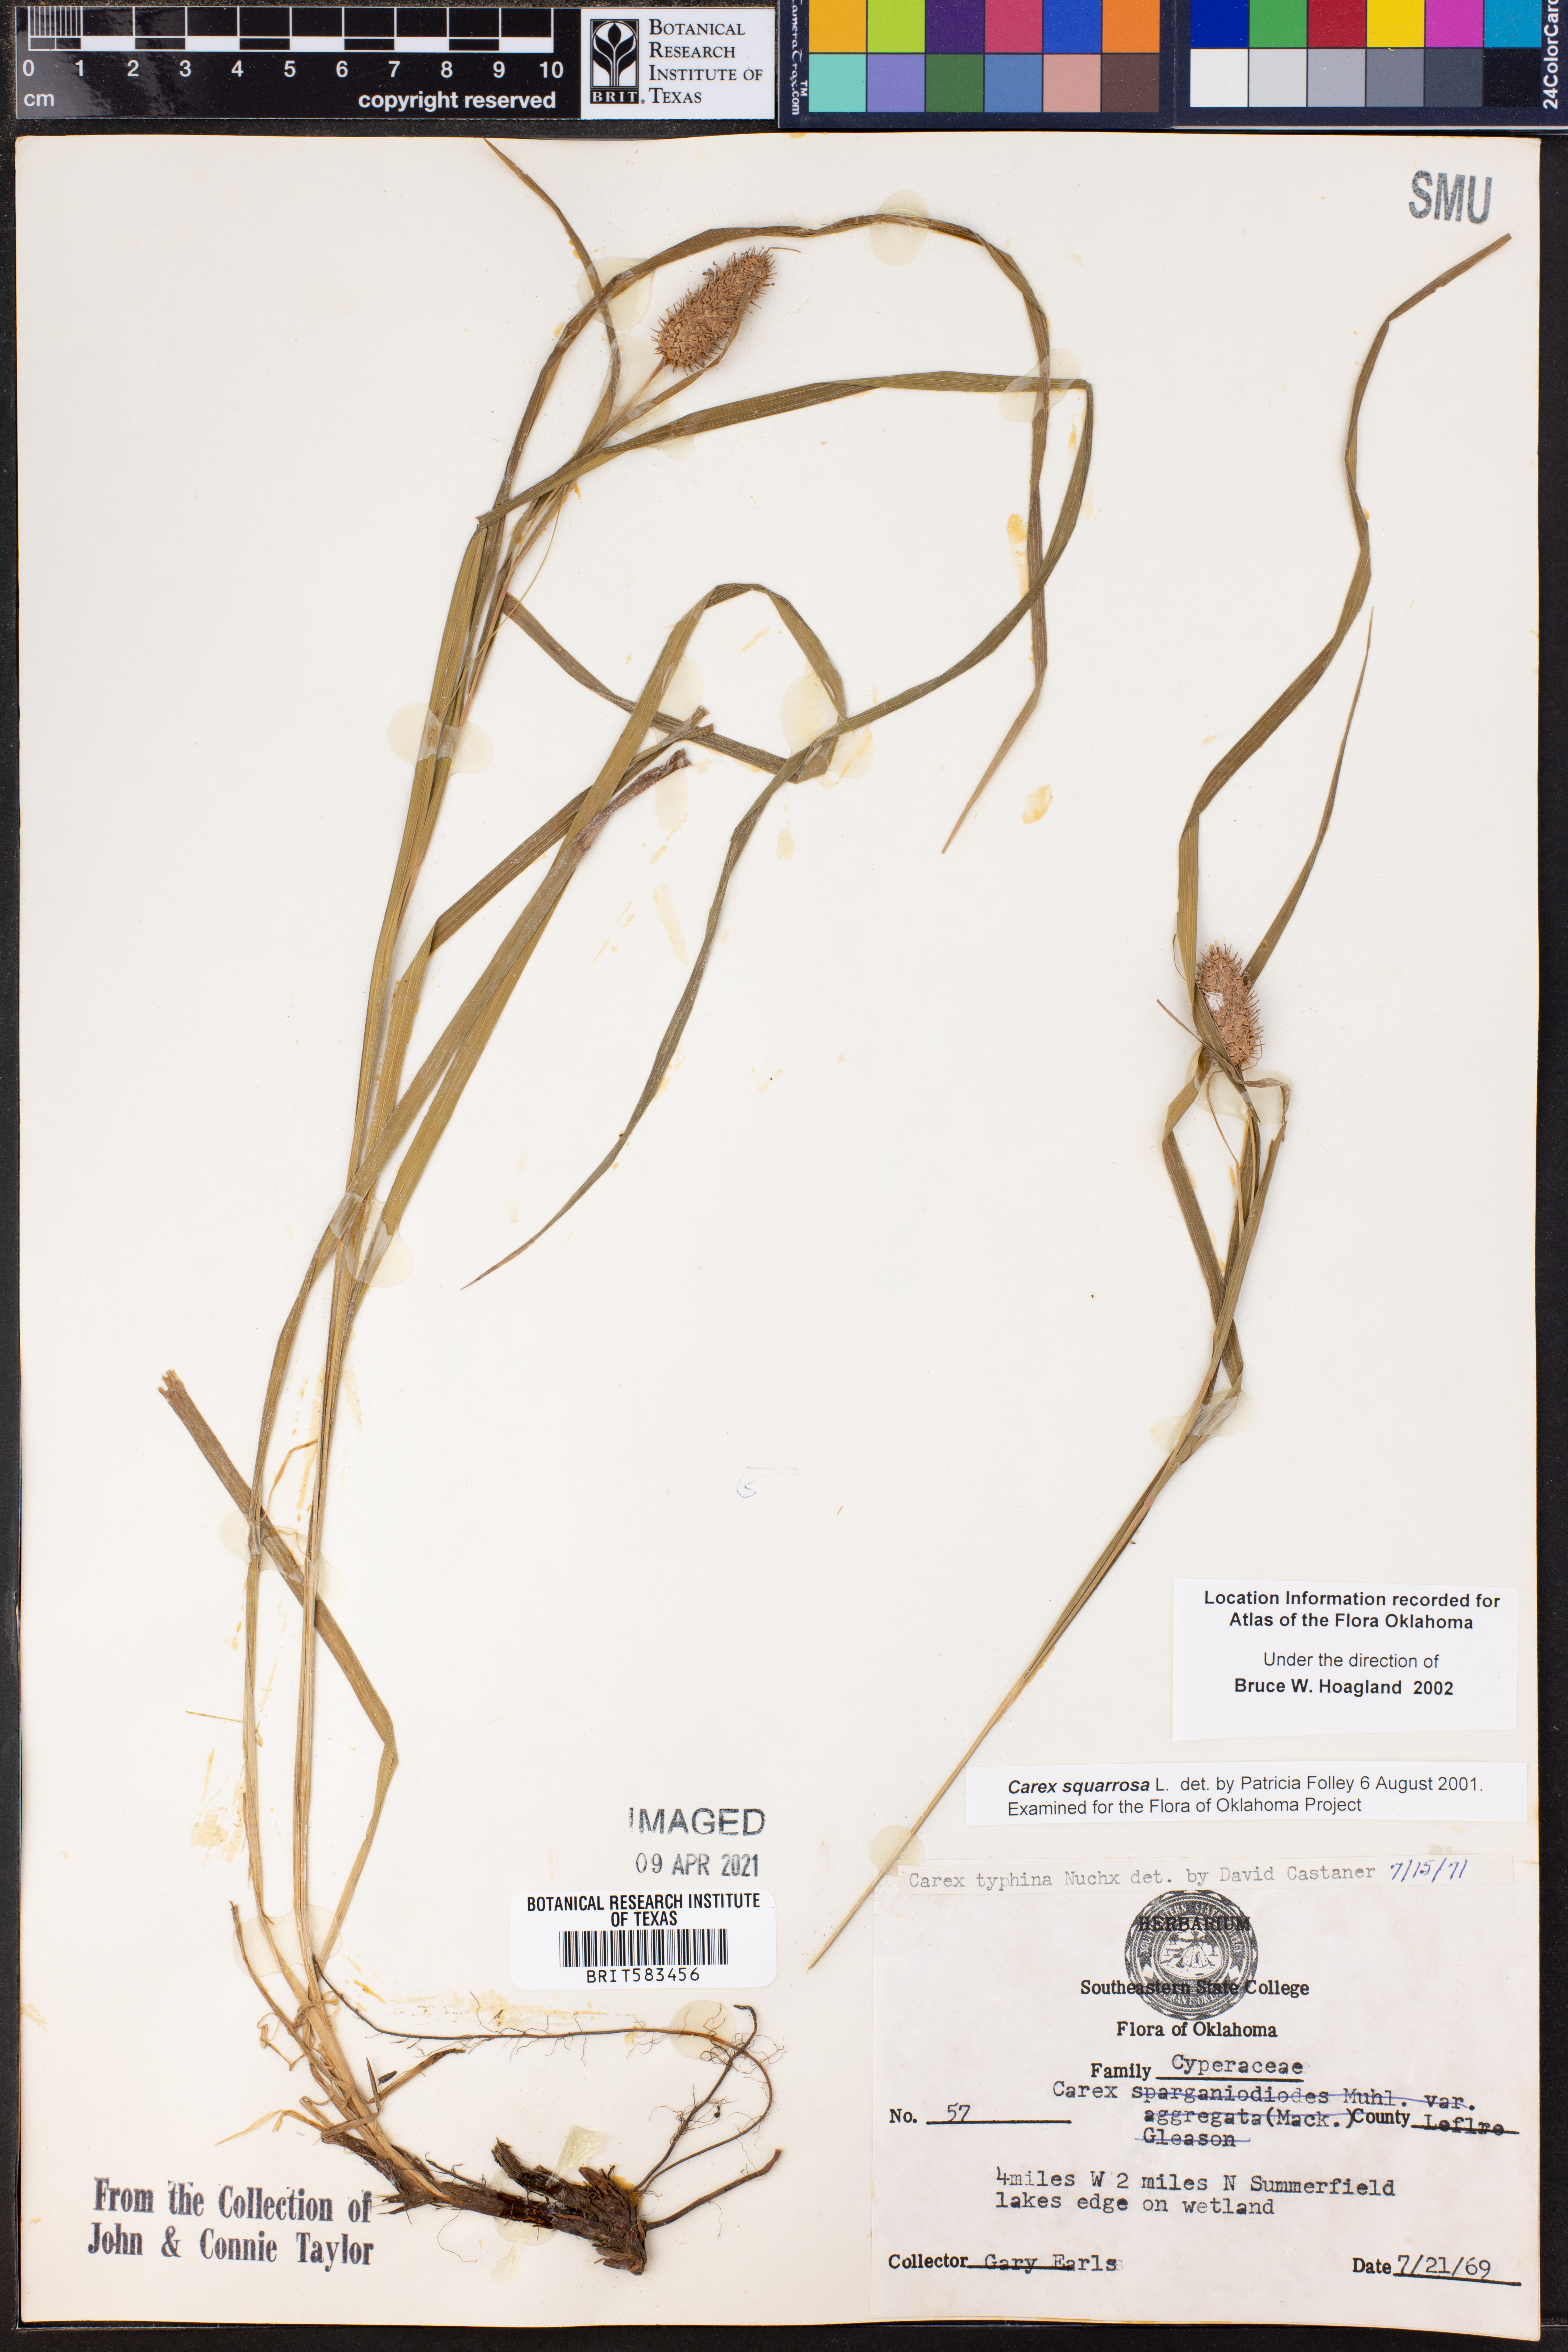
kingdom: Plantae
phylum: Tracheophyta
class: Liliopsida
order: Poales
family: Cyperaceae
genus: Carex
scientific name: Carex squarrosa
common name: Narrow-leaved cattail sedge
